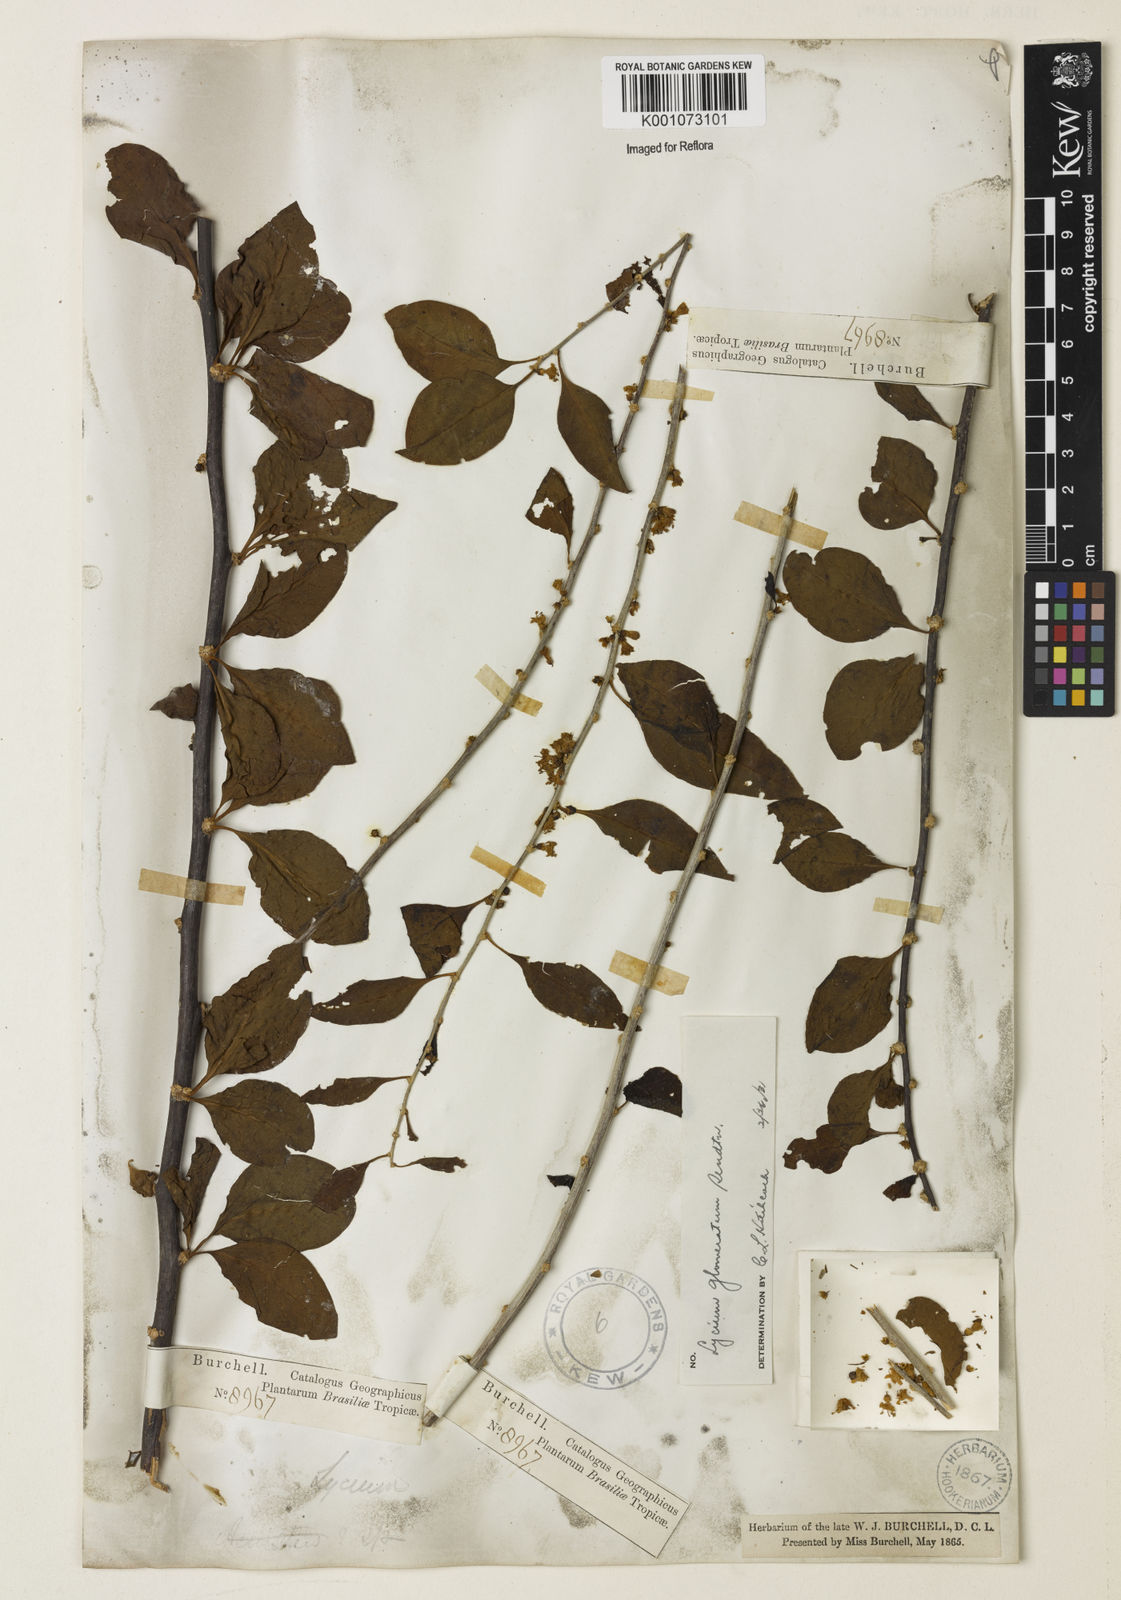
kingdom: Plantae
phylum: Tracheophyta
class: Magnoliopsida
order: Solanales
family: Solanaceae
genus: Lycium
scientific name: Lycium glomeratum
